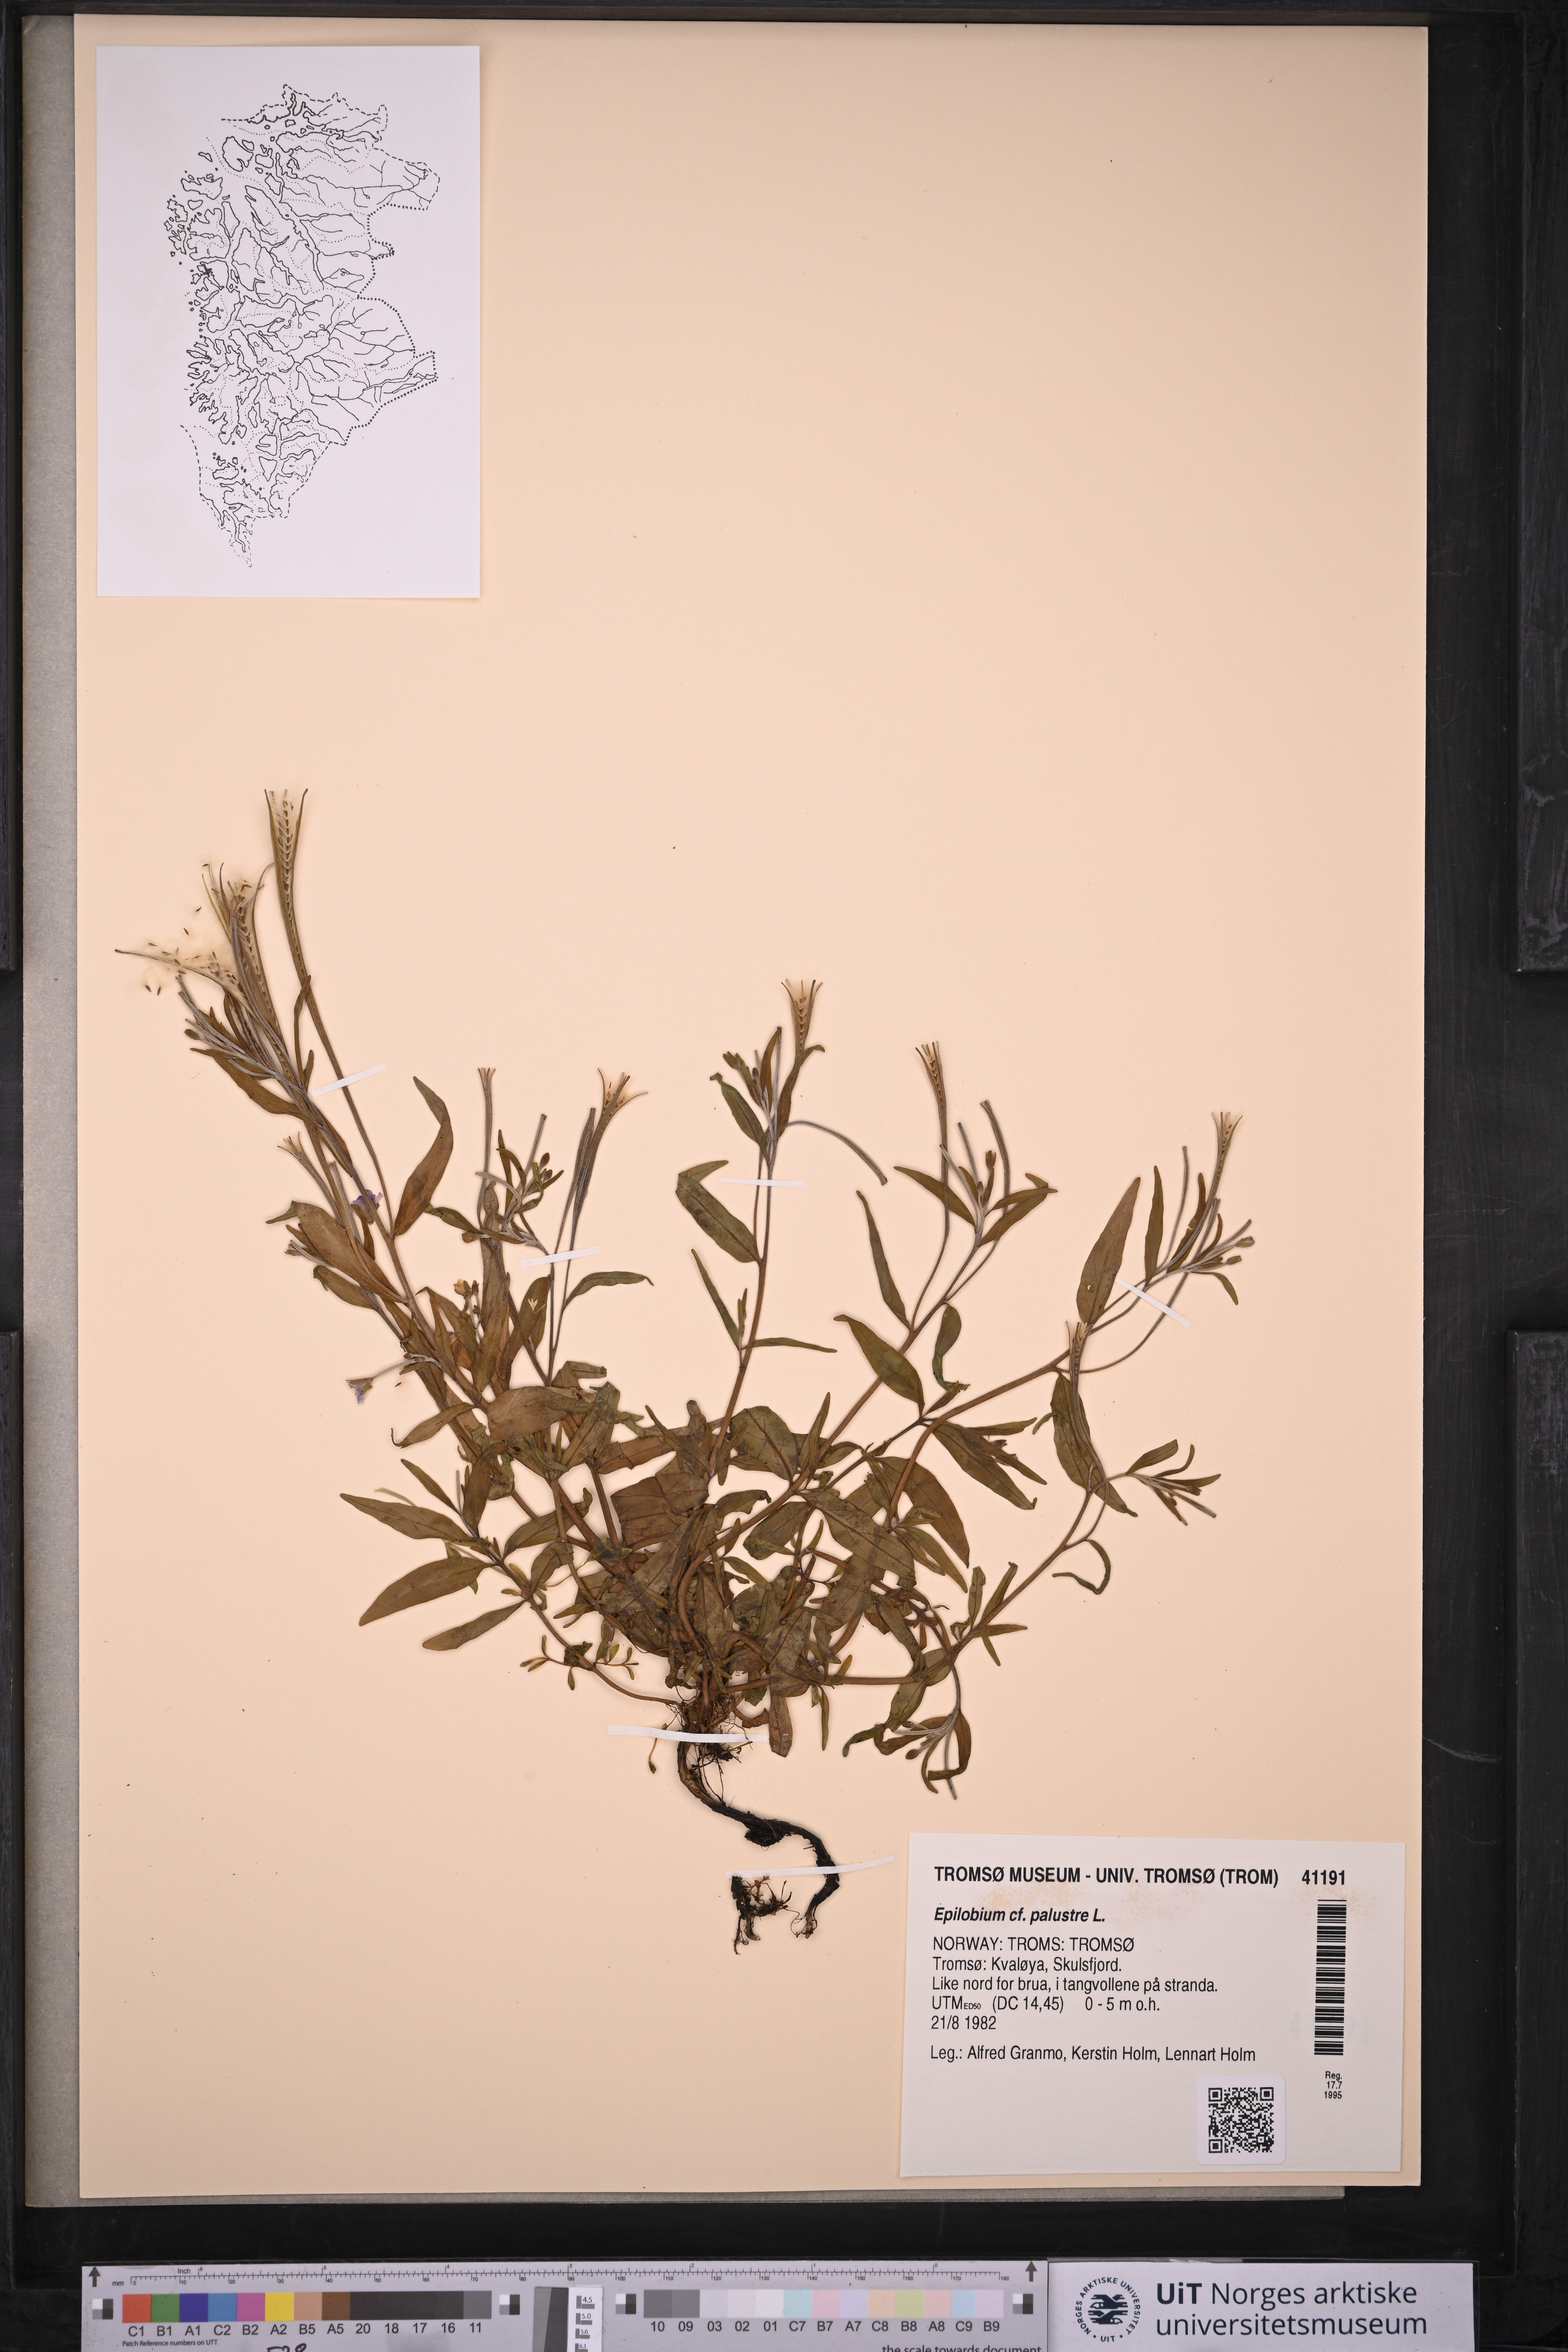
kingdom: Plantae
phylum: Tracheophyta
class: Magnoliopsida
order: Myrtales
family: Onagraceae
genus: Epilobium
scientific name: Epilobium palustre
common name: Marsh willowherb
